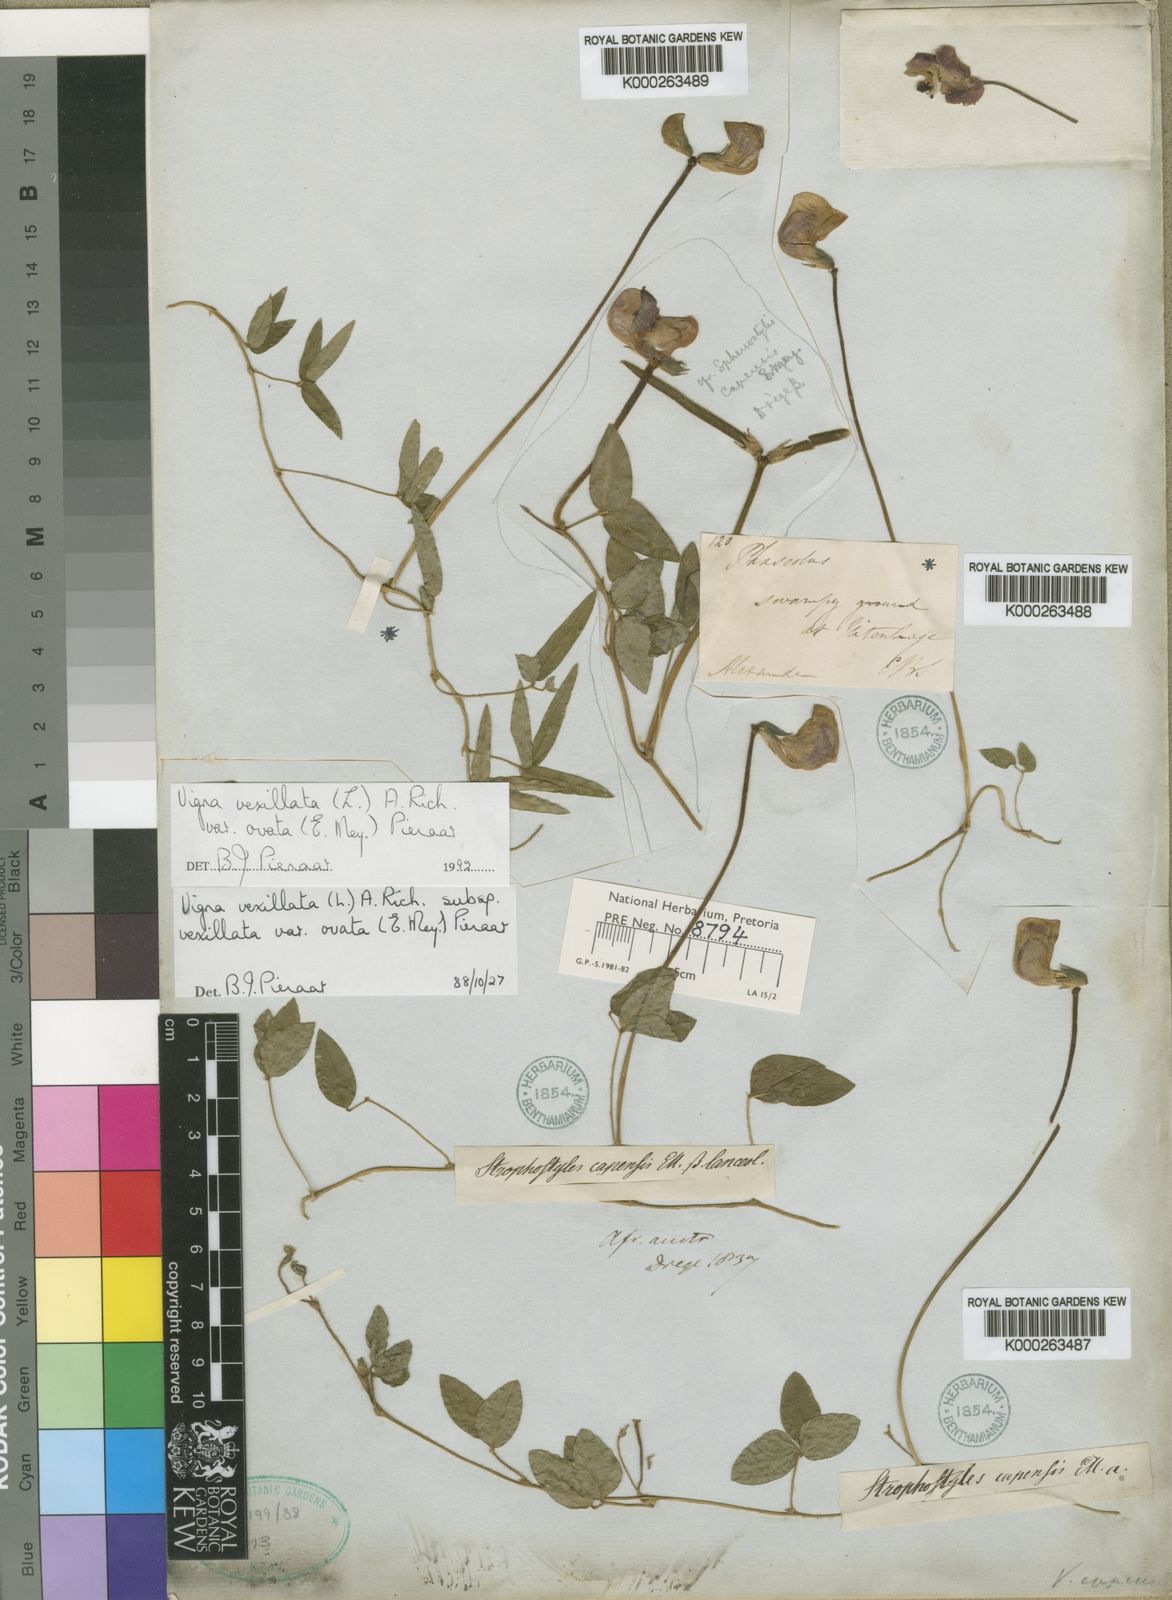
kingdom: Plantae
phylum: Tracheophyta
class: Magnoliopsida
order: Fabales
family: Fabaceae
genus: Vigna
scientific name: Vigna vexillata
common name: Zombi pea
